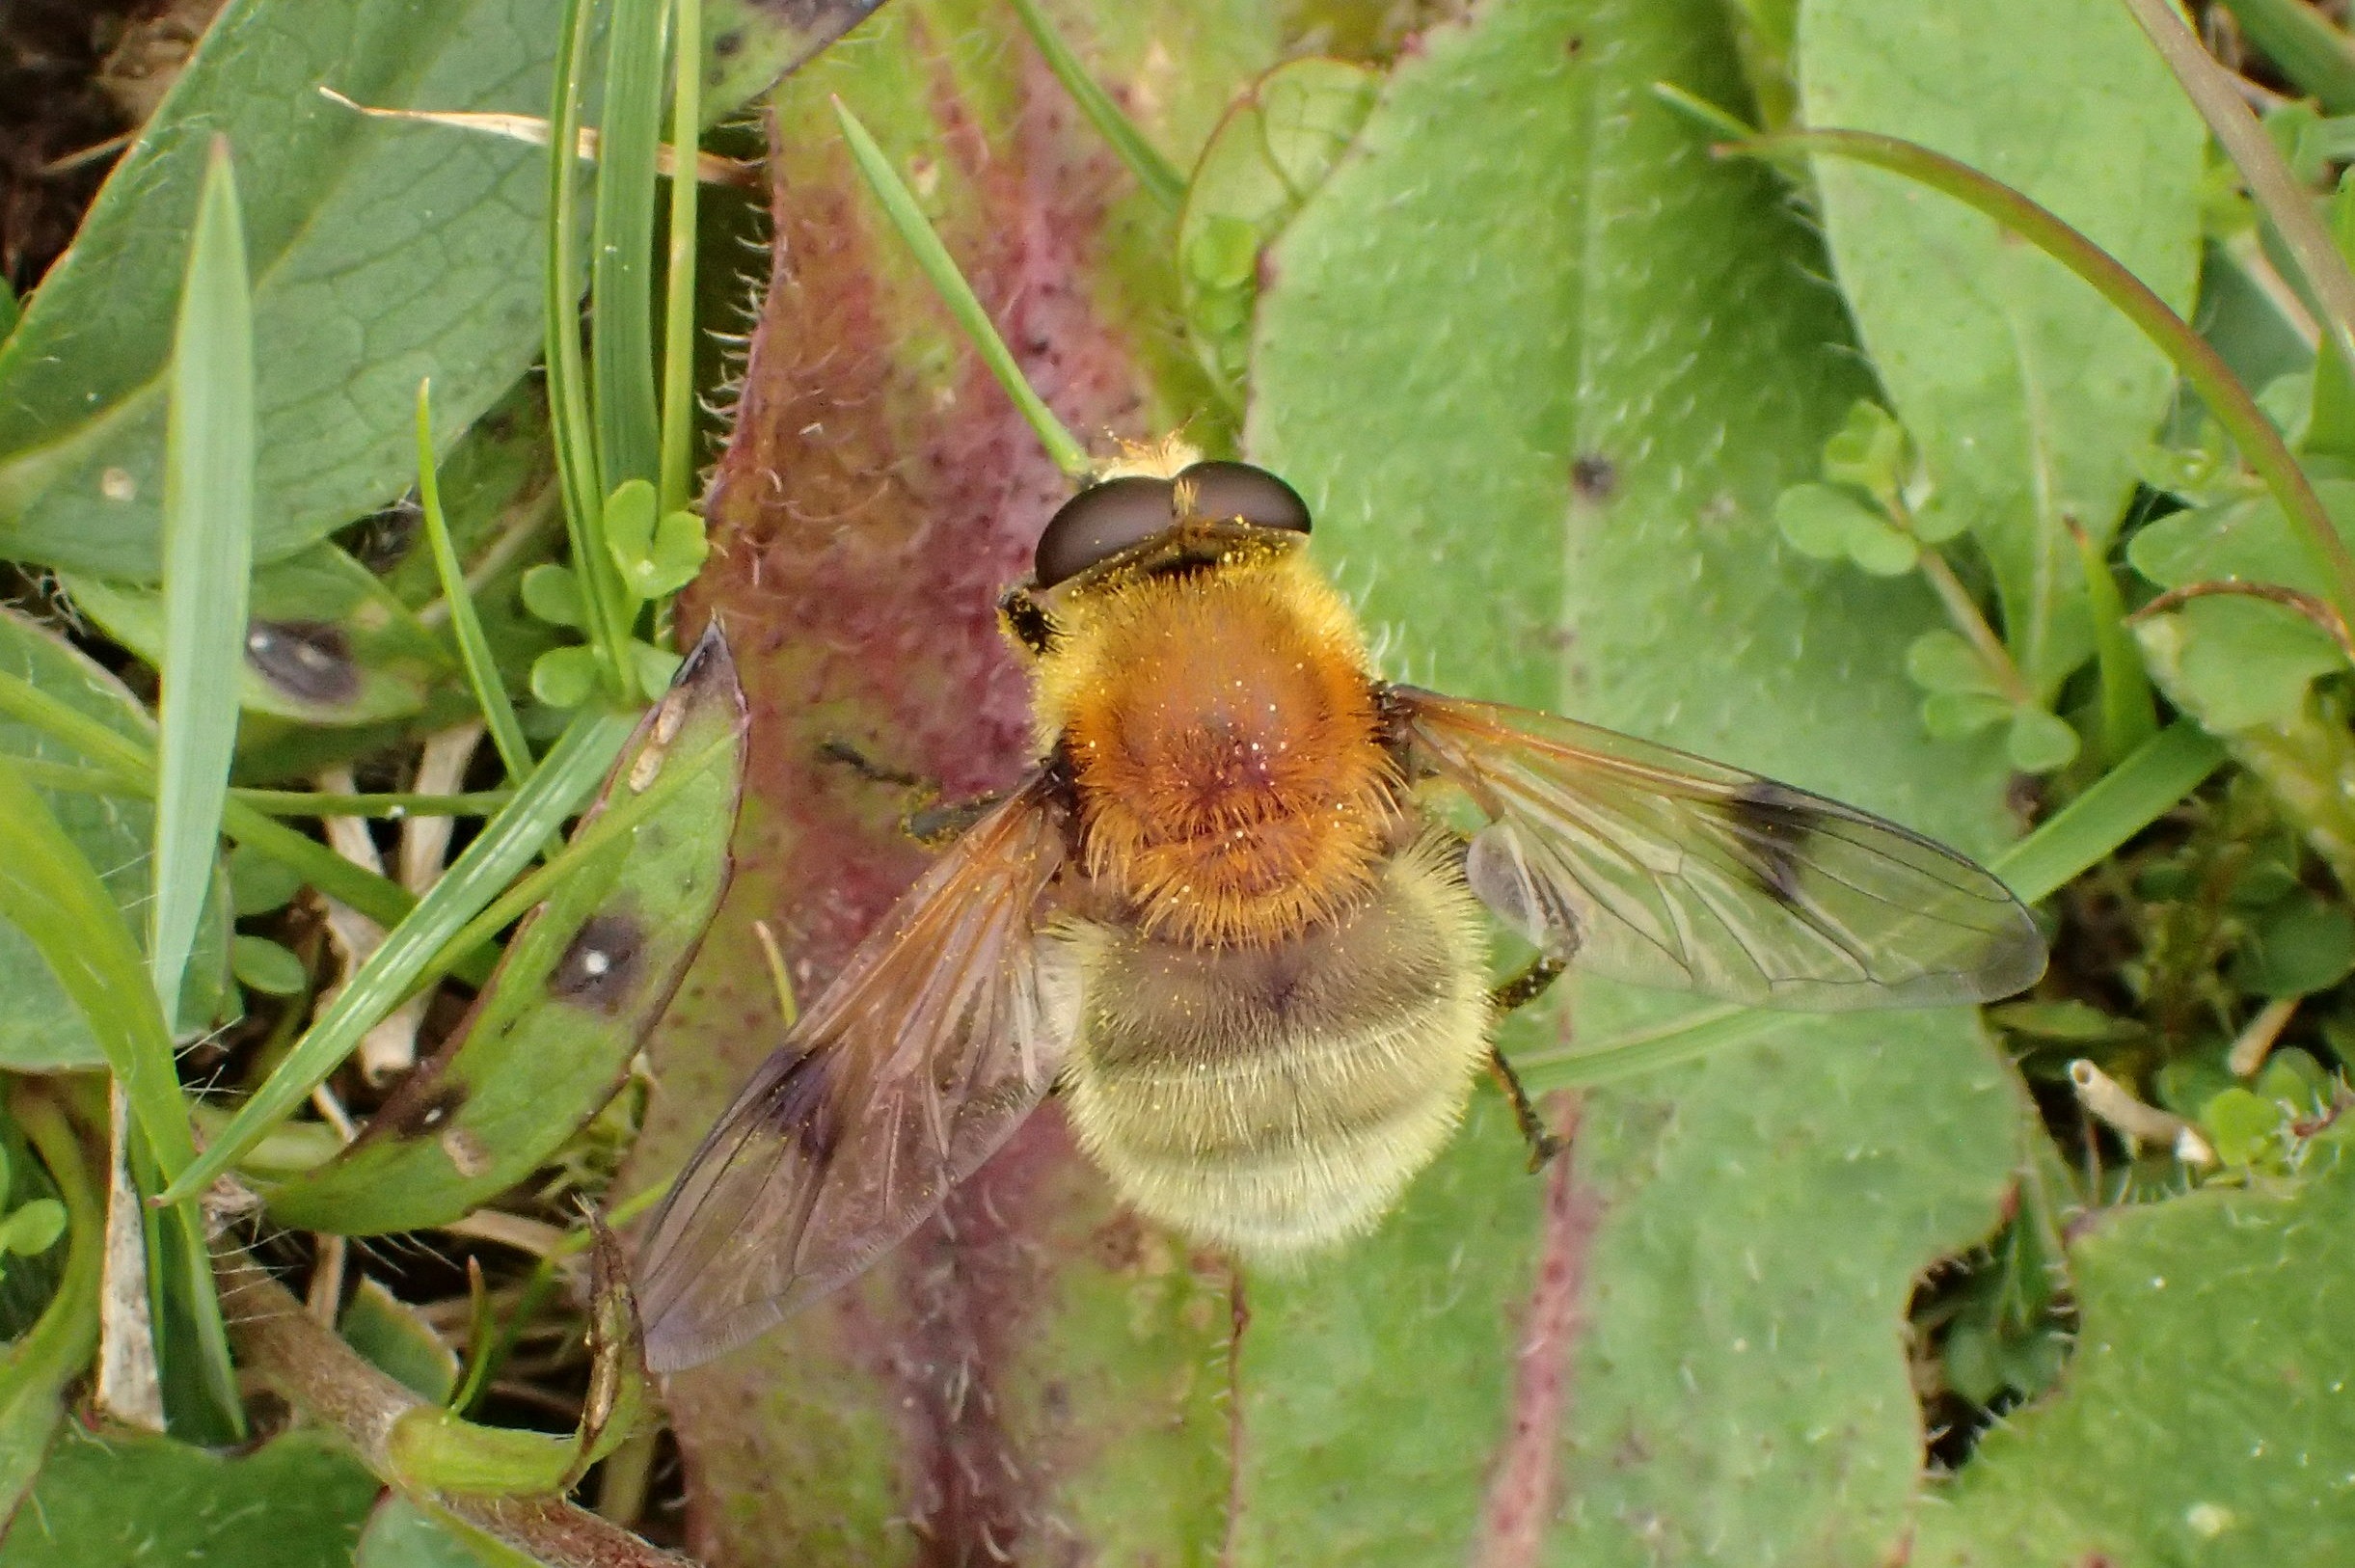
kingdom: Animalia
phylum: Arthropoda
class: Insecta
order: Diptera
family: Syrphidae
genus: Sericomyia
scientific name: Sericomyia superbiens
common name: Brun bjørnesvirreflue
